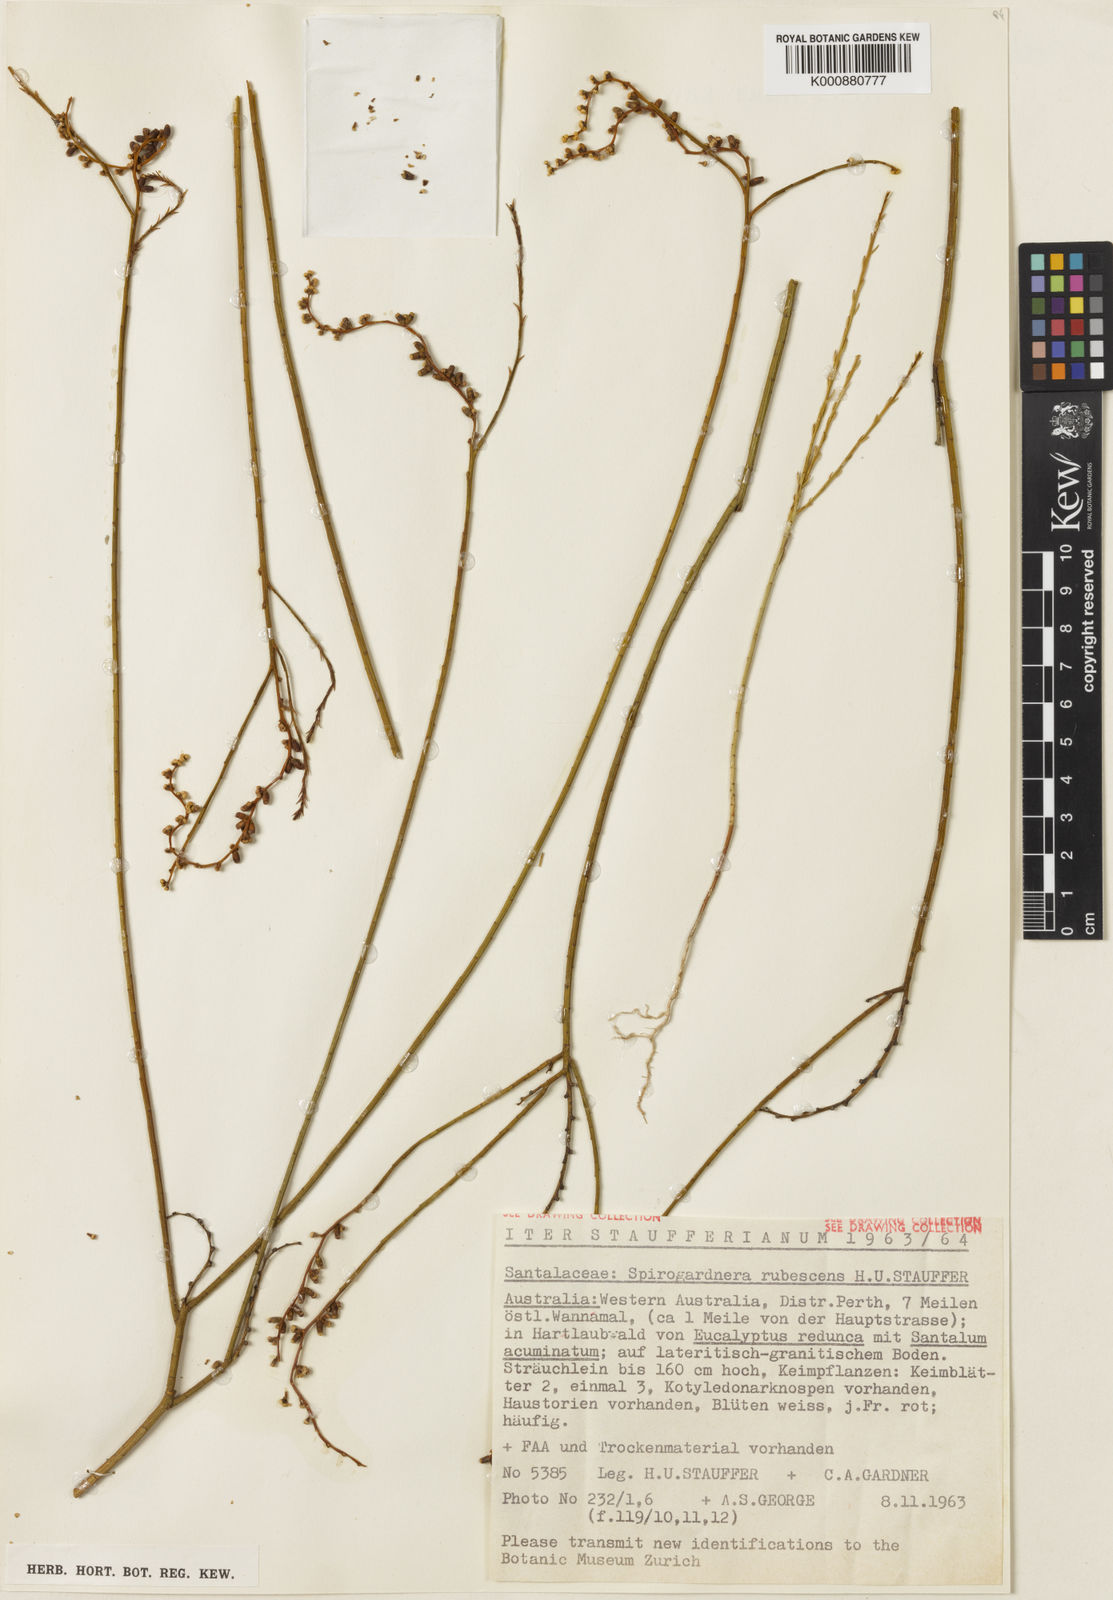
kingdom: Plantae
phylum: Tracheophyta
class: Magnoliopsida
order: Santalales
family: Amphorogynaceae
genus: Spirogardnera
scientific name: Spirogardnera rubescens
